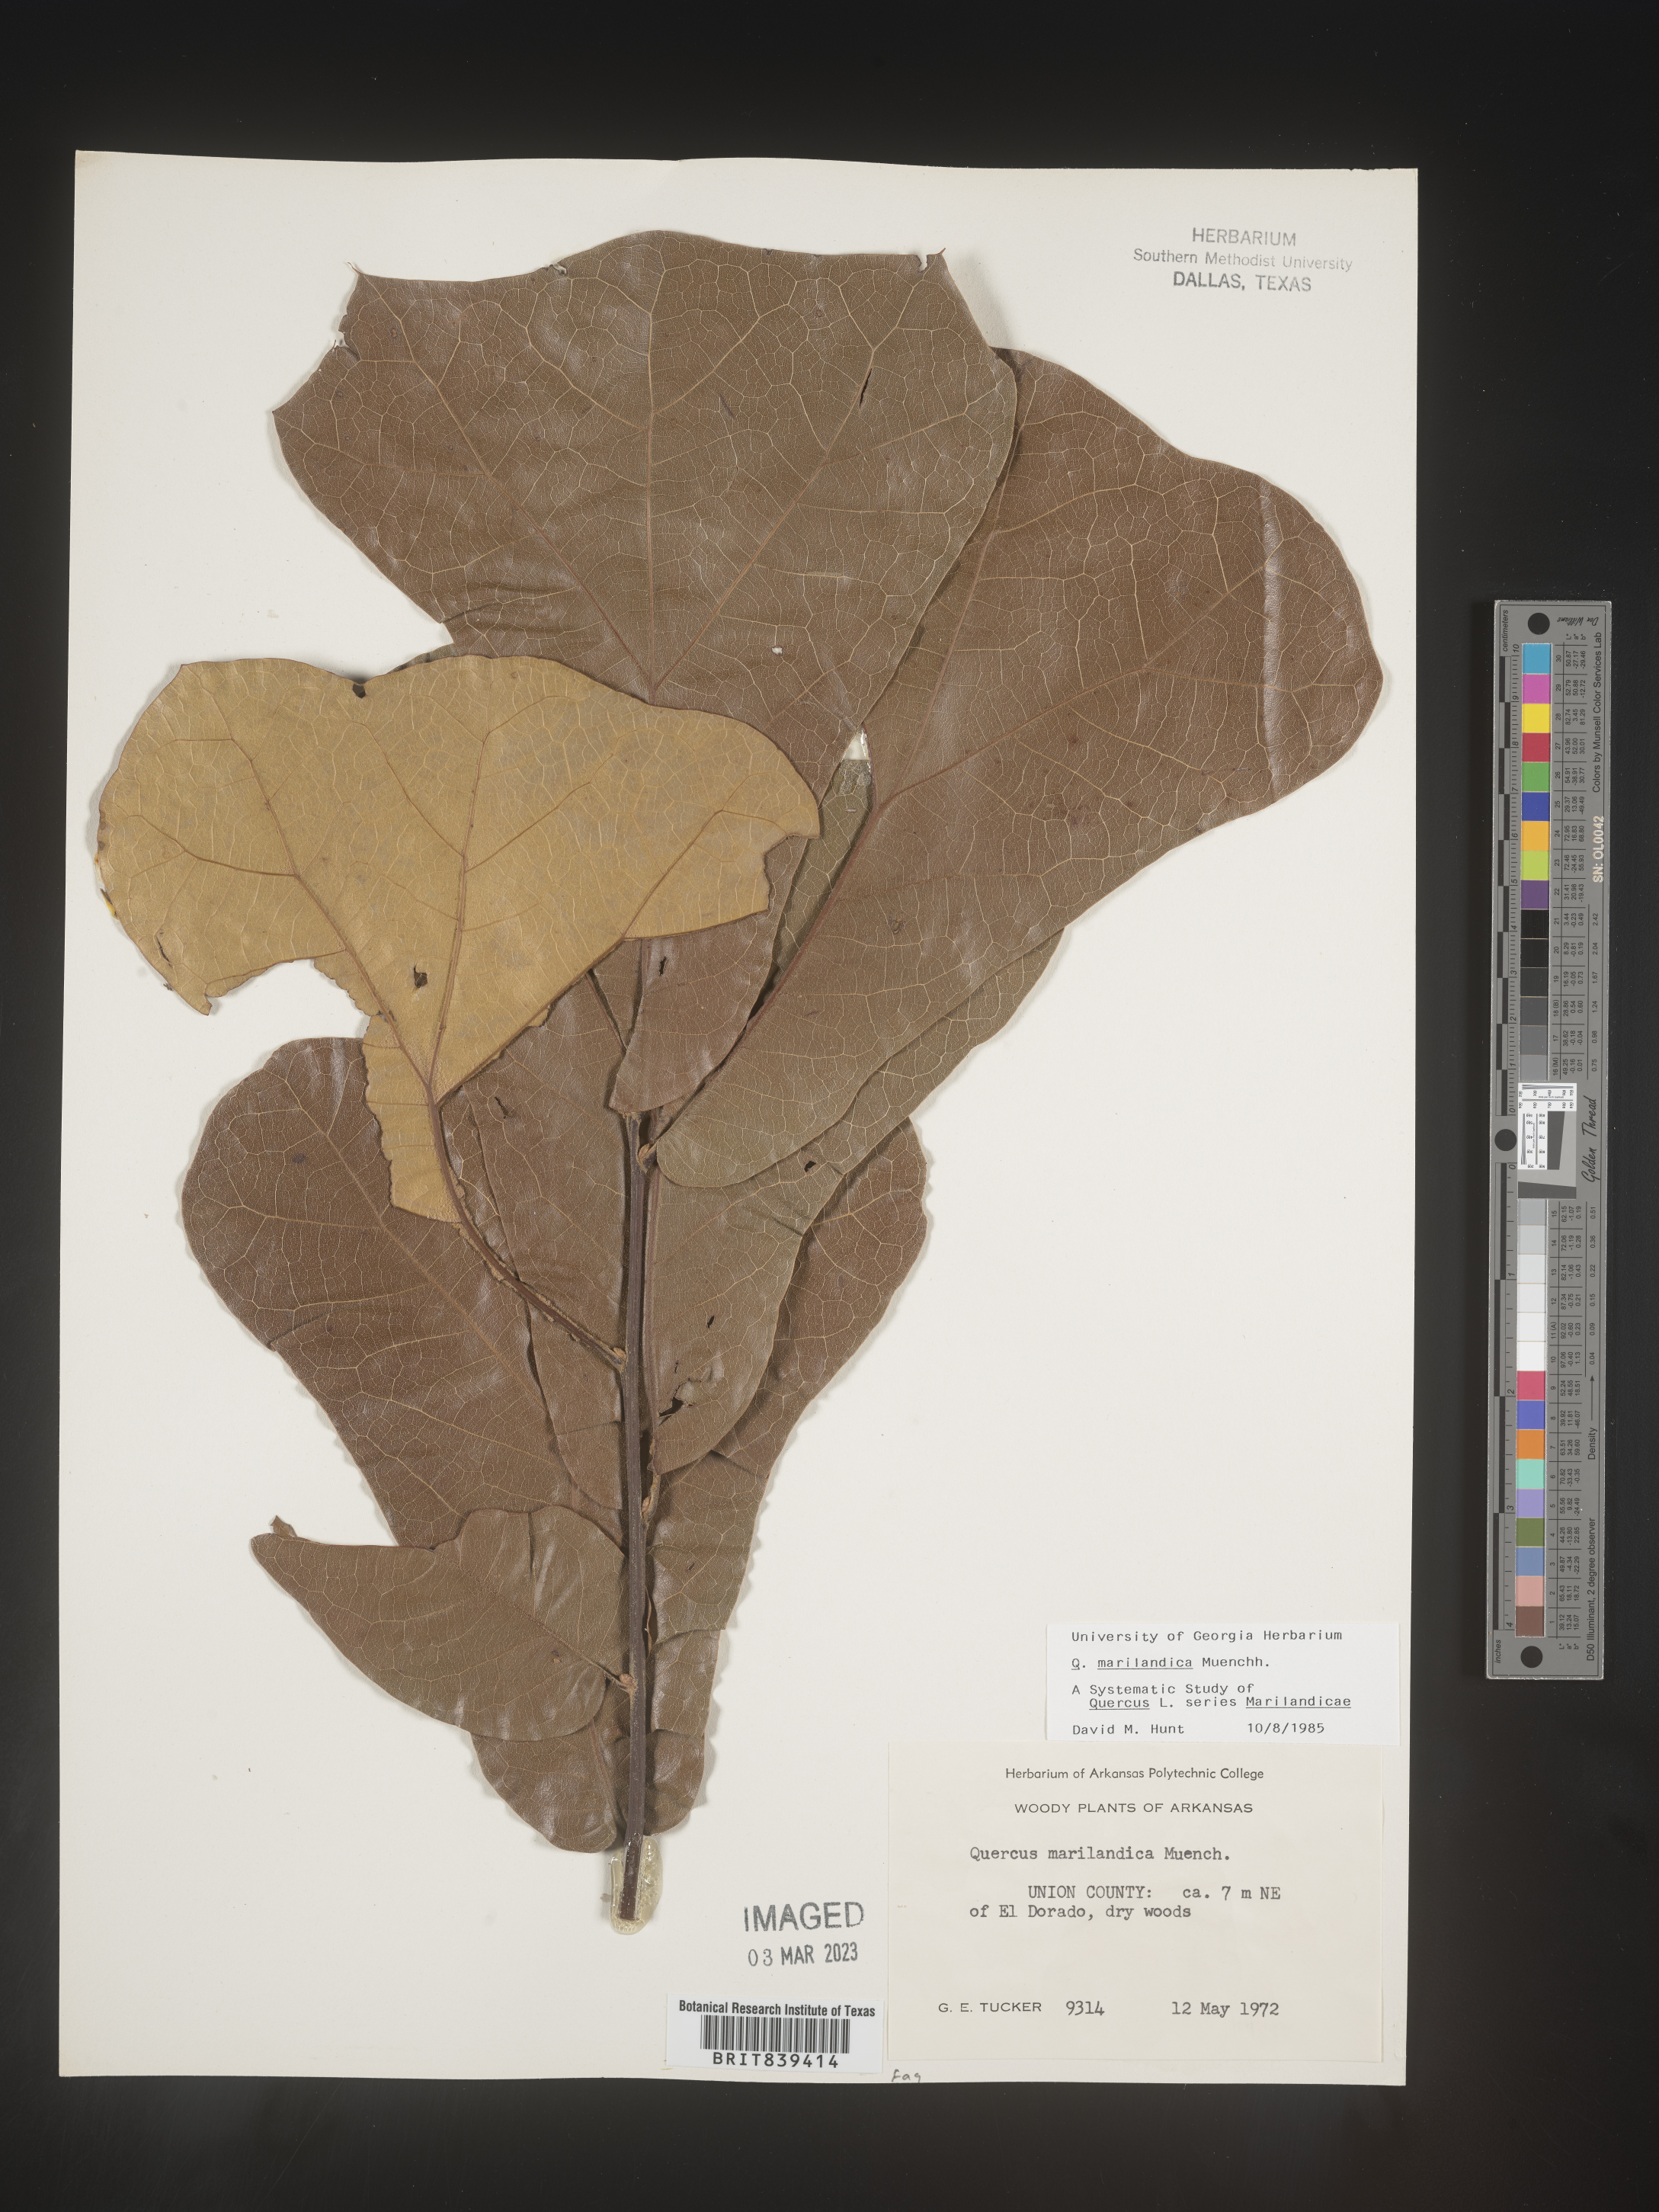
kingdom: Plantae
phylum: Tracheophyta
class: Magnoliopsida
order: Fagales
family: Fagaceae
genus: Quercus
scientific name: Quercus marilandica
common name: Blackjack oak
